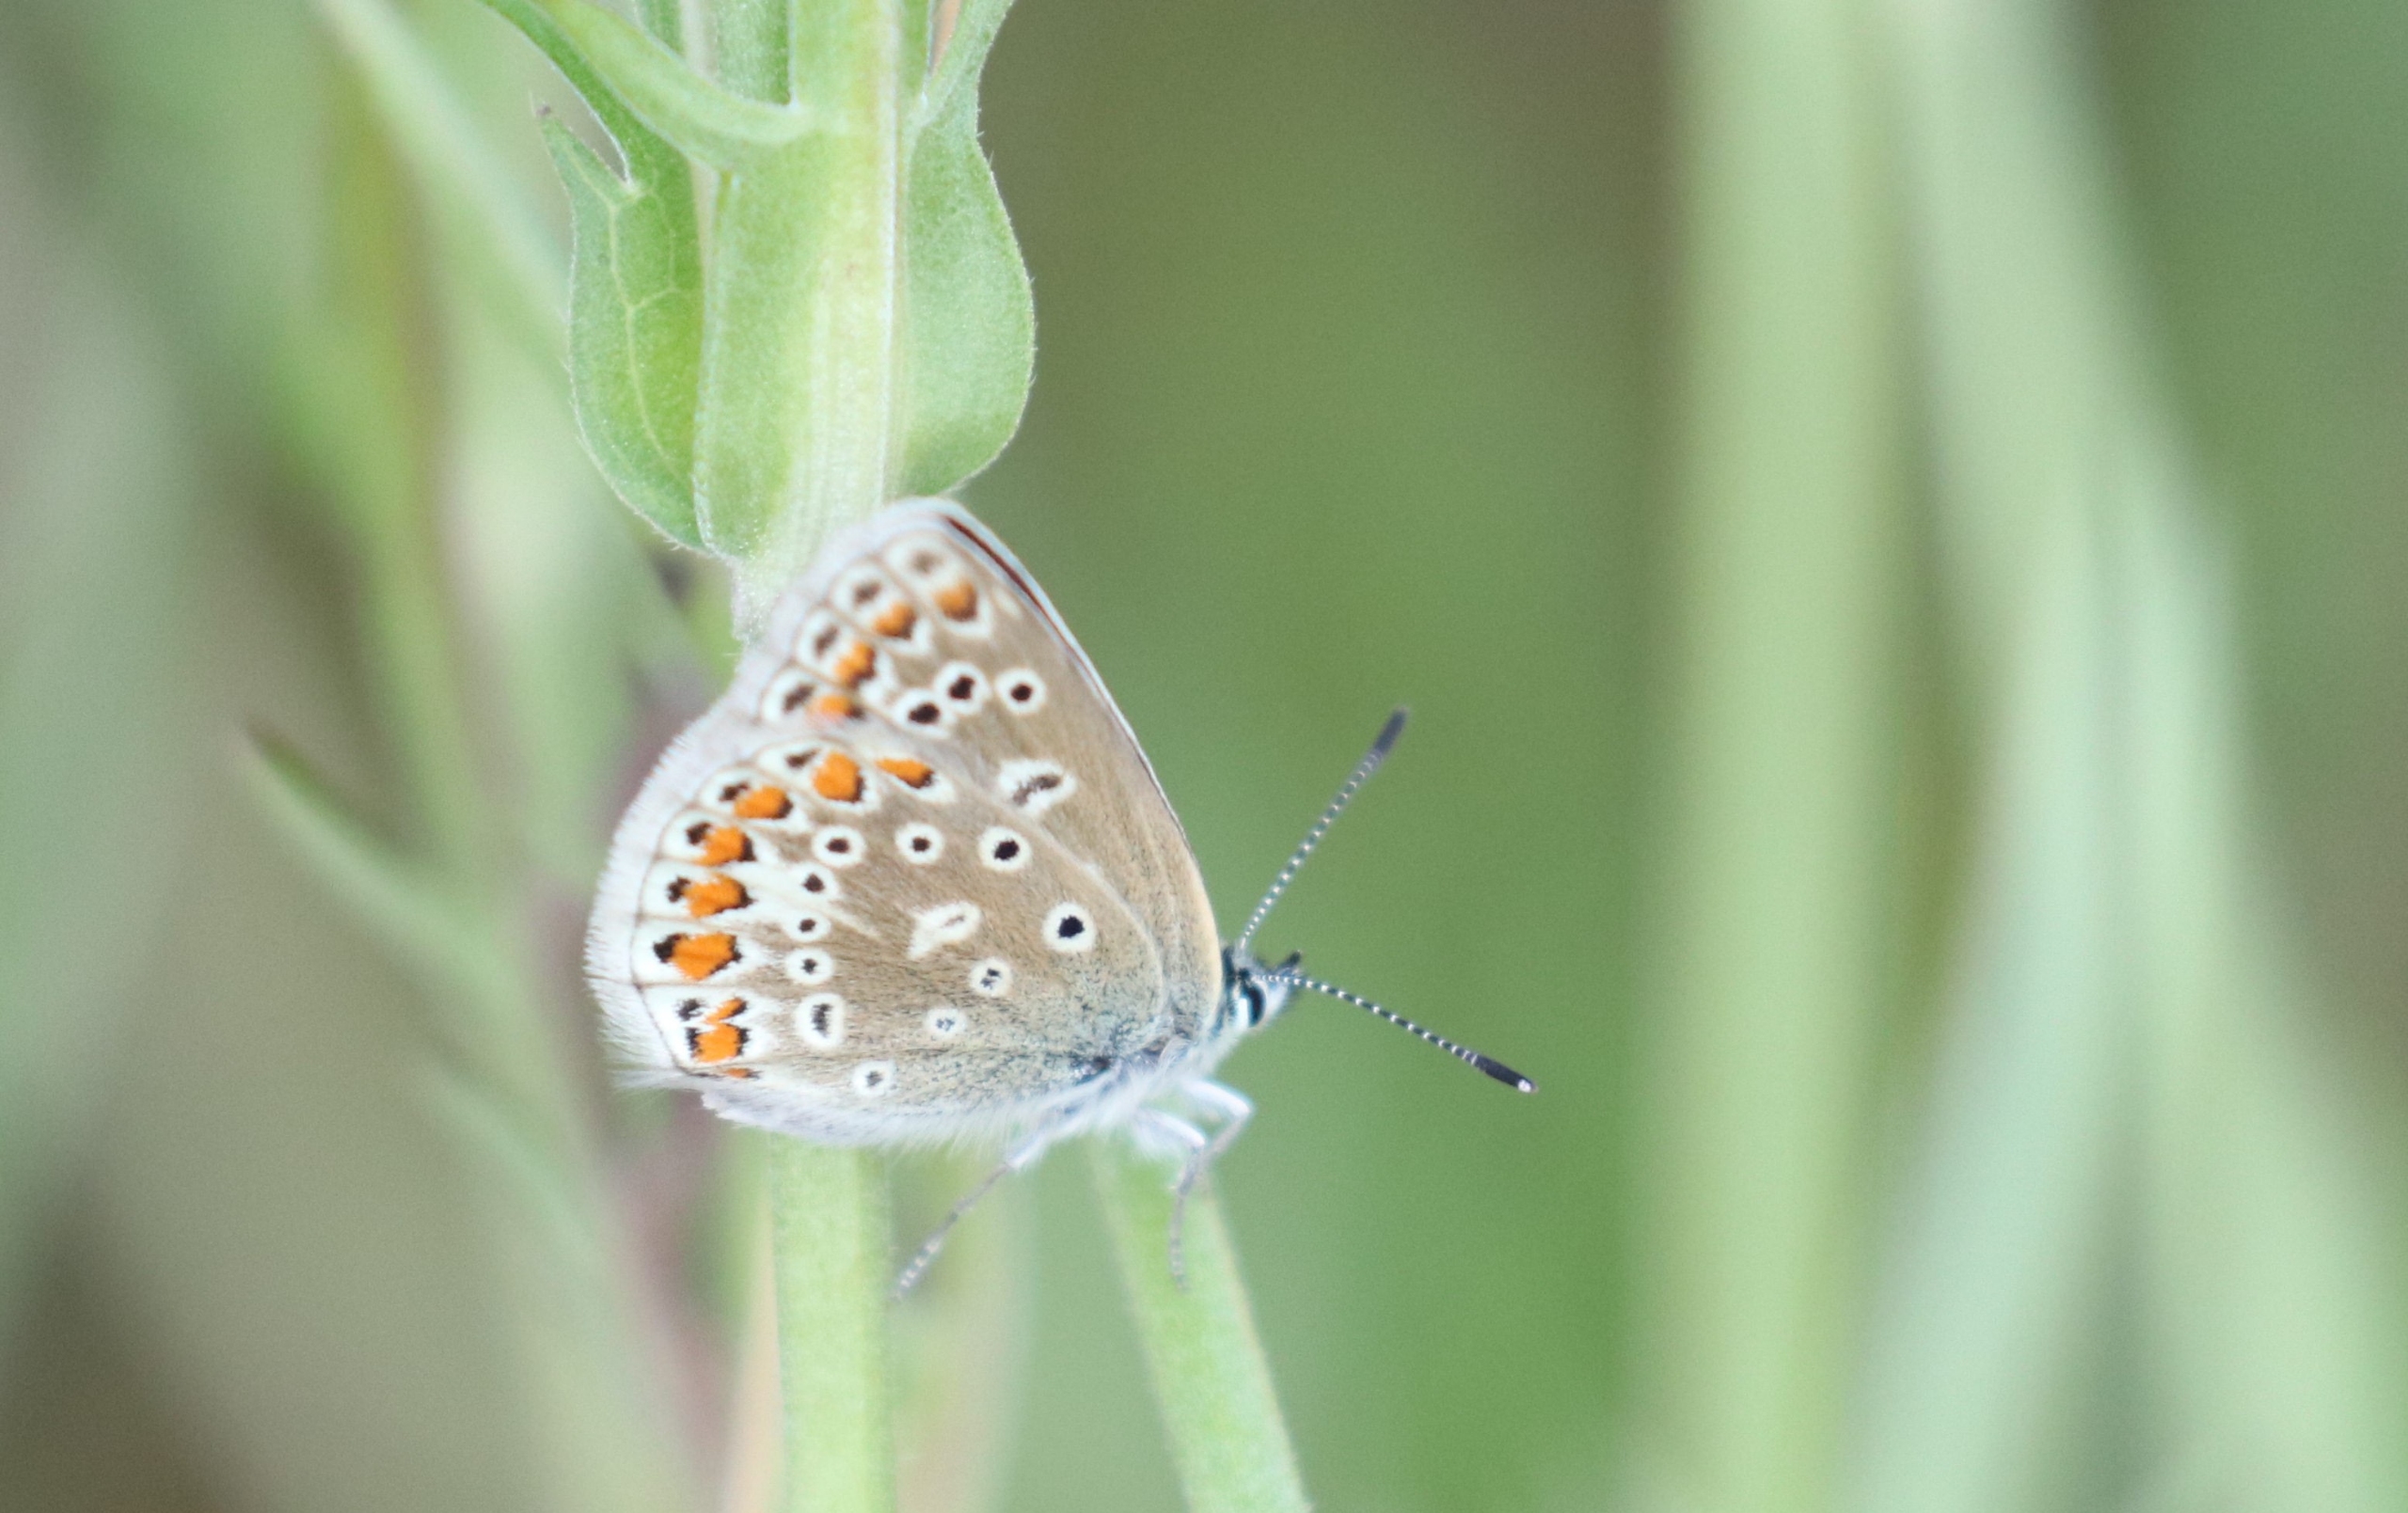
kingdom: Animalia
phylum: Arthropoda
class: Insecta
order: Lepidoptera
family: Lycaenidae
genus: Polyommatus
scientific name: Polyommatus icarus
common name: Almindelig blåfugl
